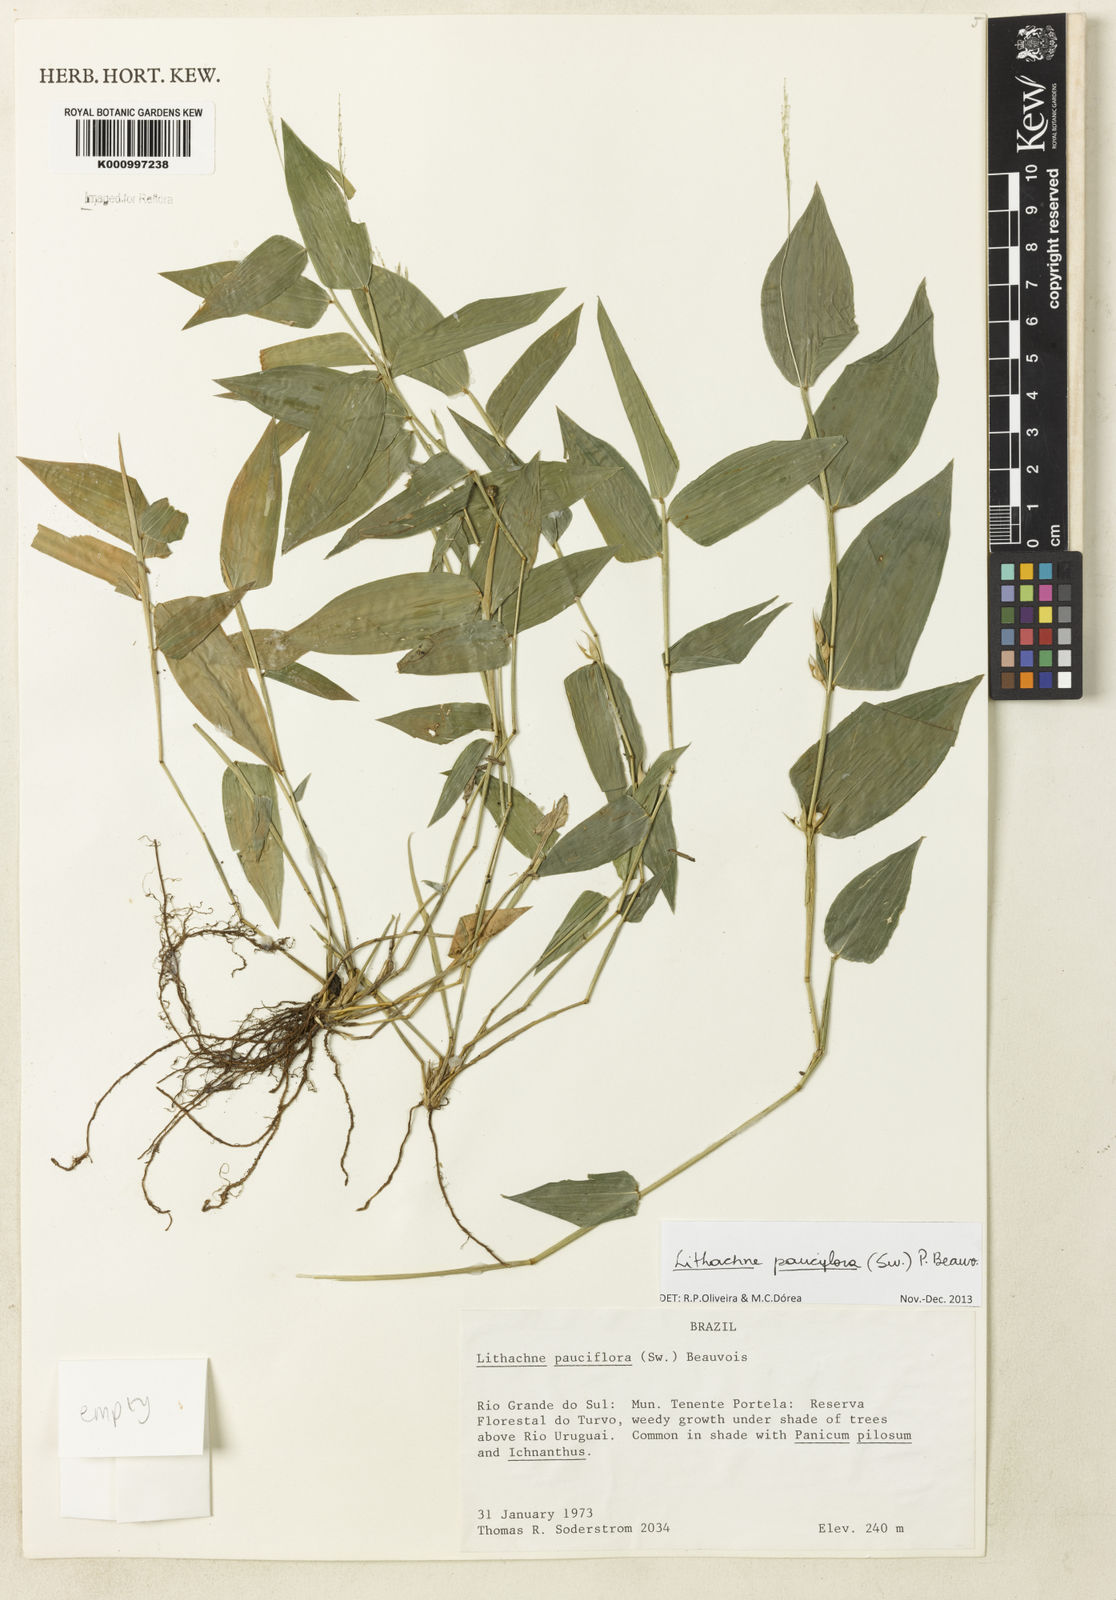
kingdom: Plantae
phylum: Tracheophyta
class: Liliopsida
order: Poales
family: Poaceae
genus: Lithachne
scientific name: Lithachne pauciflora
